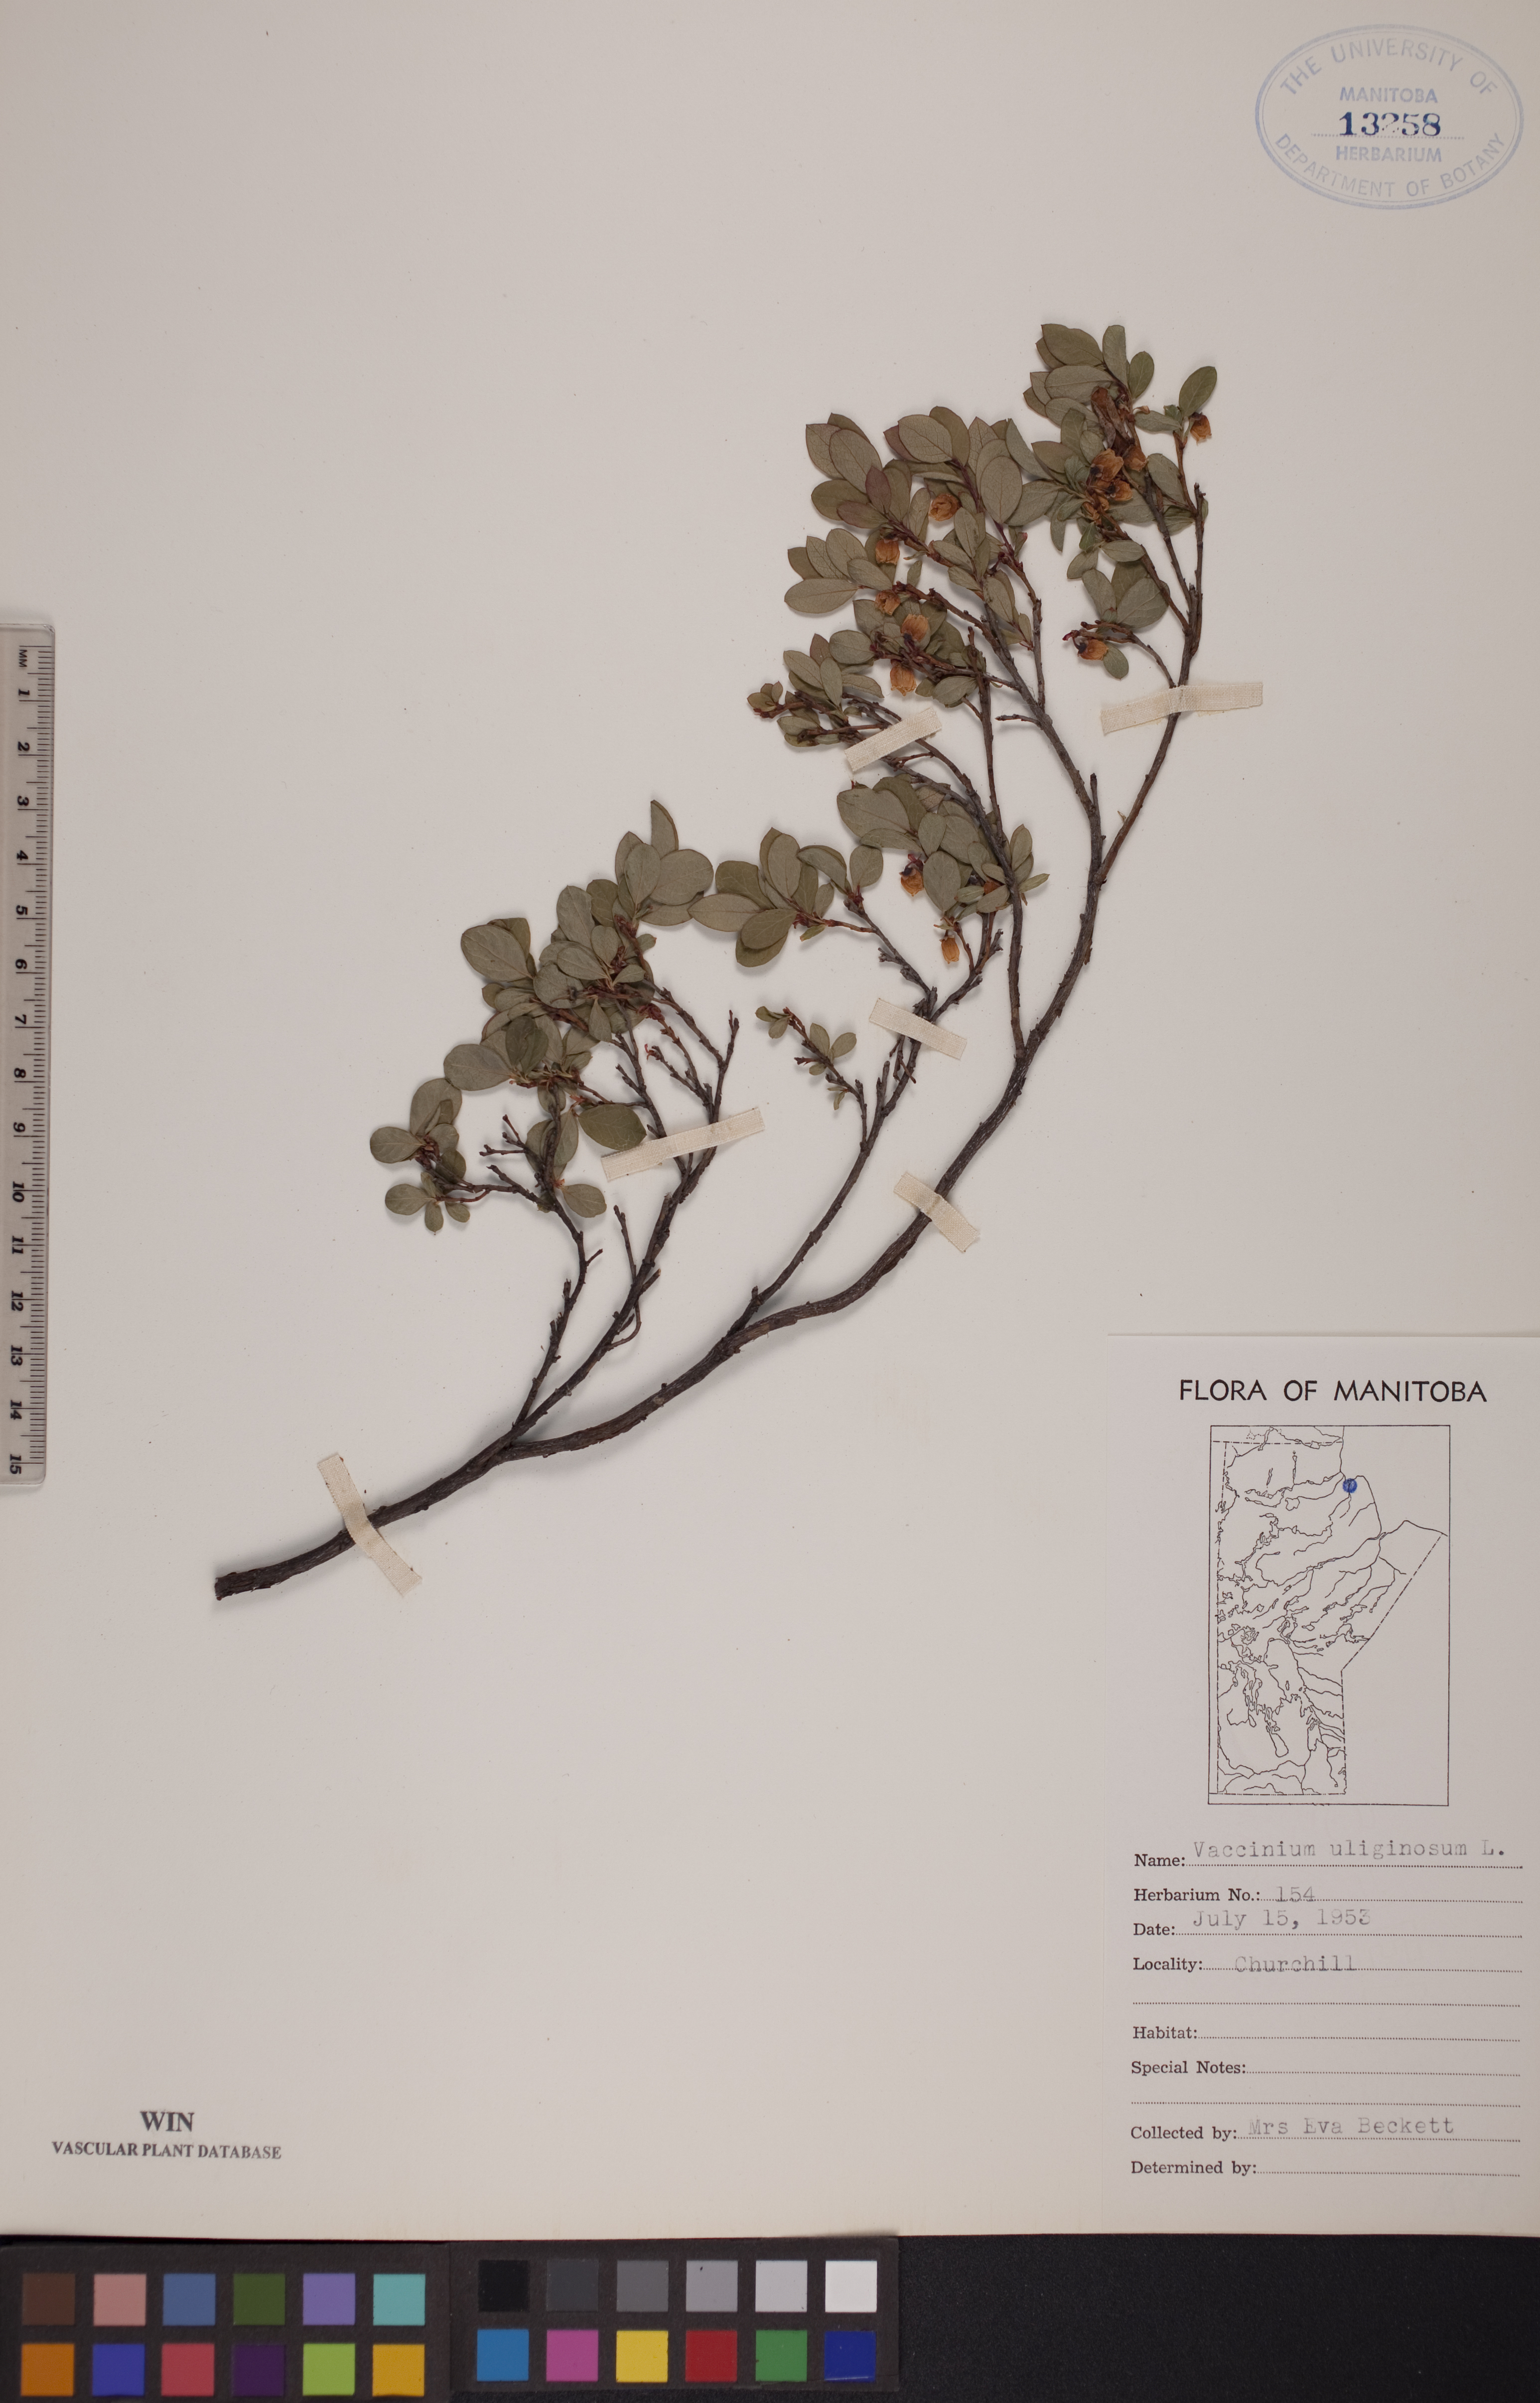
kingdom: Plantae
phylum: Tracheophyta
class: Magnoliopsida
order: Ericales
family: Ericaceae
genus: Vaccinium
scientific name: Vaccinium uliginosum
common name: Bog bilberry
